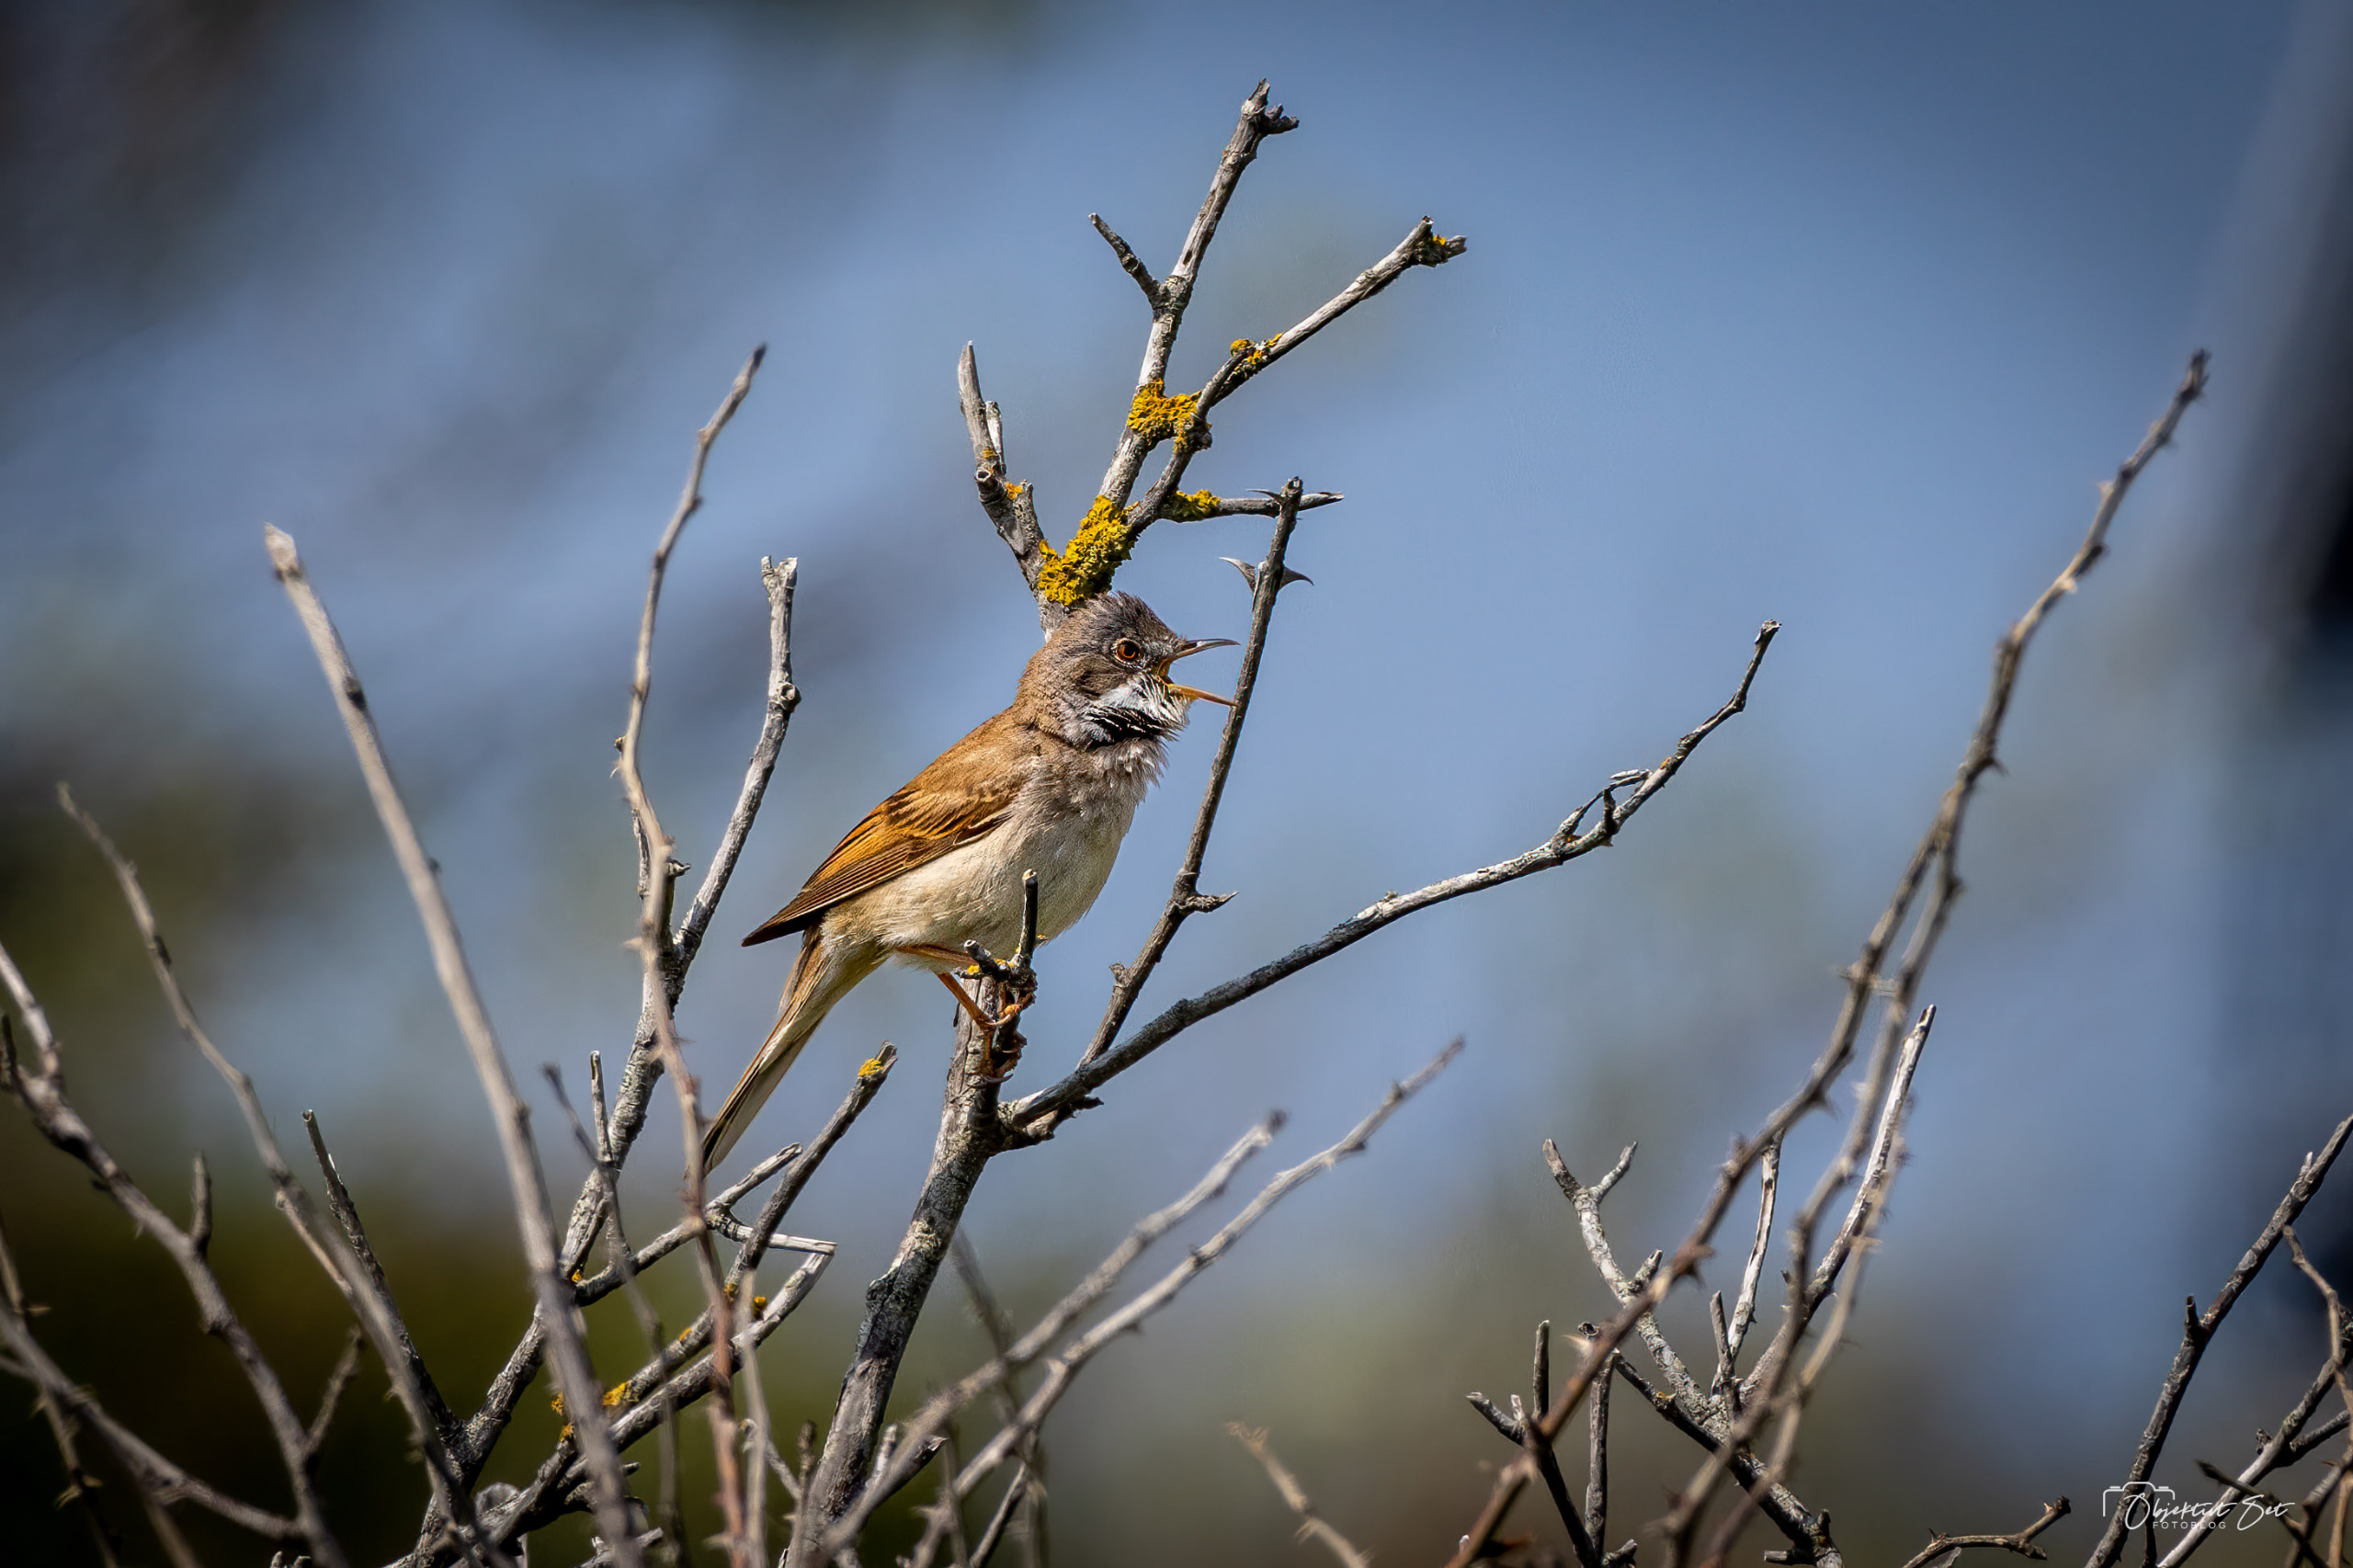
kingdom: Animalia
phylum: Chordata
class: Aves
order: Passeriformes
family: Sylviidae
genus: Sylvia
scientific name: Sylvia communis
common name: Tornsanger
